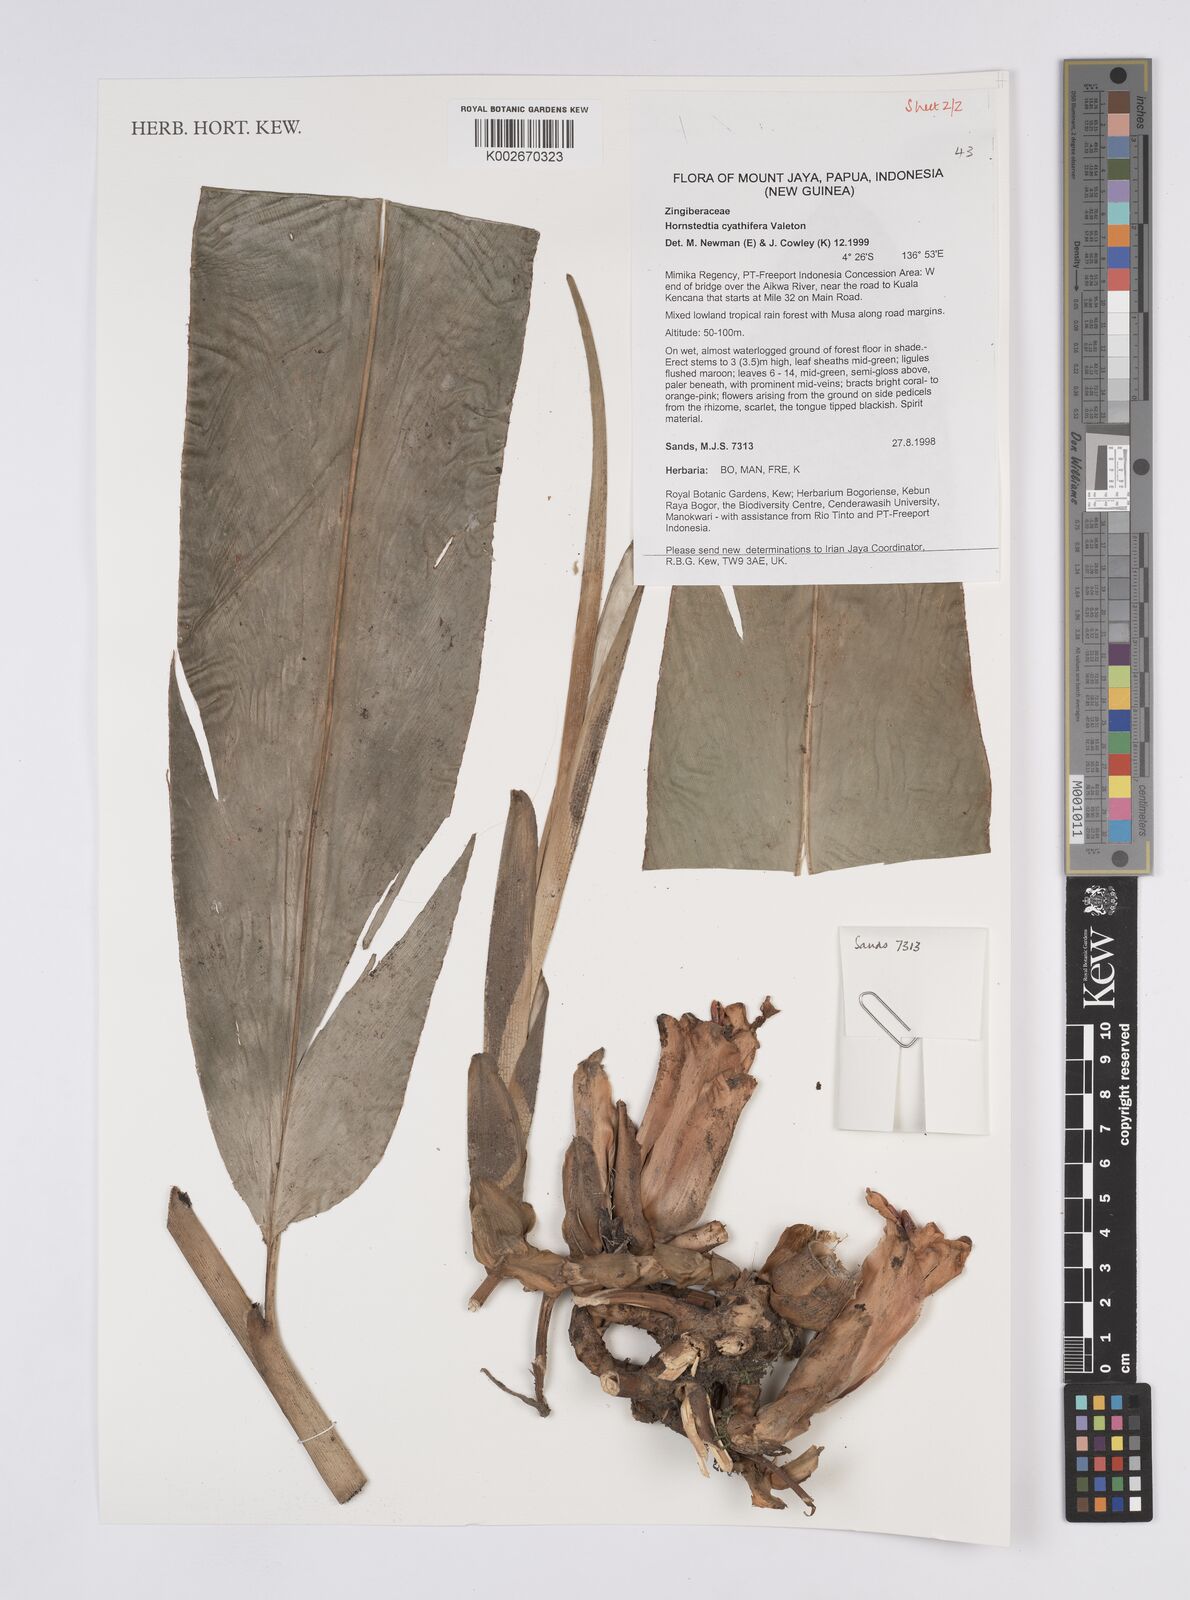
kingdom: Plantae
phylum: Tracheophyta
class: Liliopsida
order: Zingiberales
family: Zingiberaceae
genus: Hornstedtia
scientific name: Hornstedtia cyathifera
